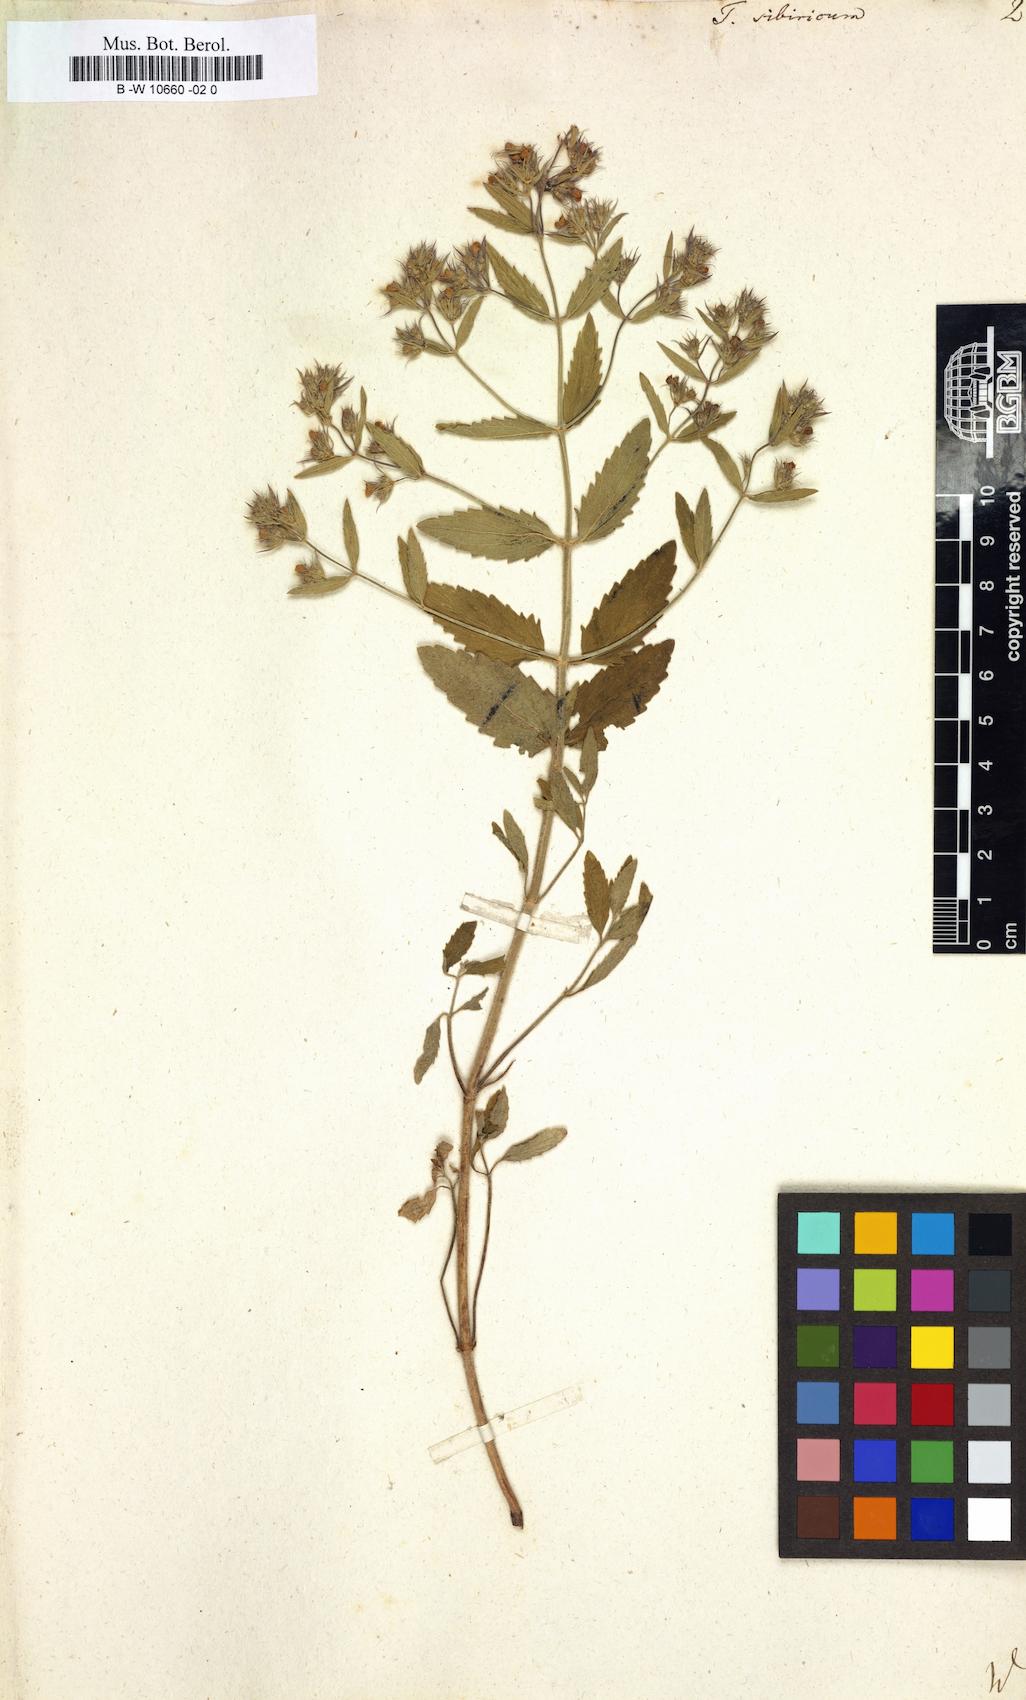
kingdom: Plantae
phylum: Tracheophyta
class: Magnoliopsida
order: Lamiales
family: Lamiaceae
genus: Teucrium
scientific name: Teucrium sibiricum
